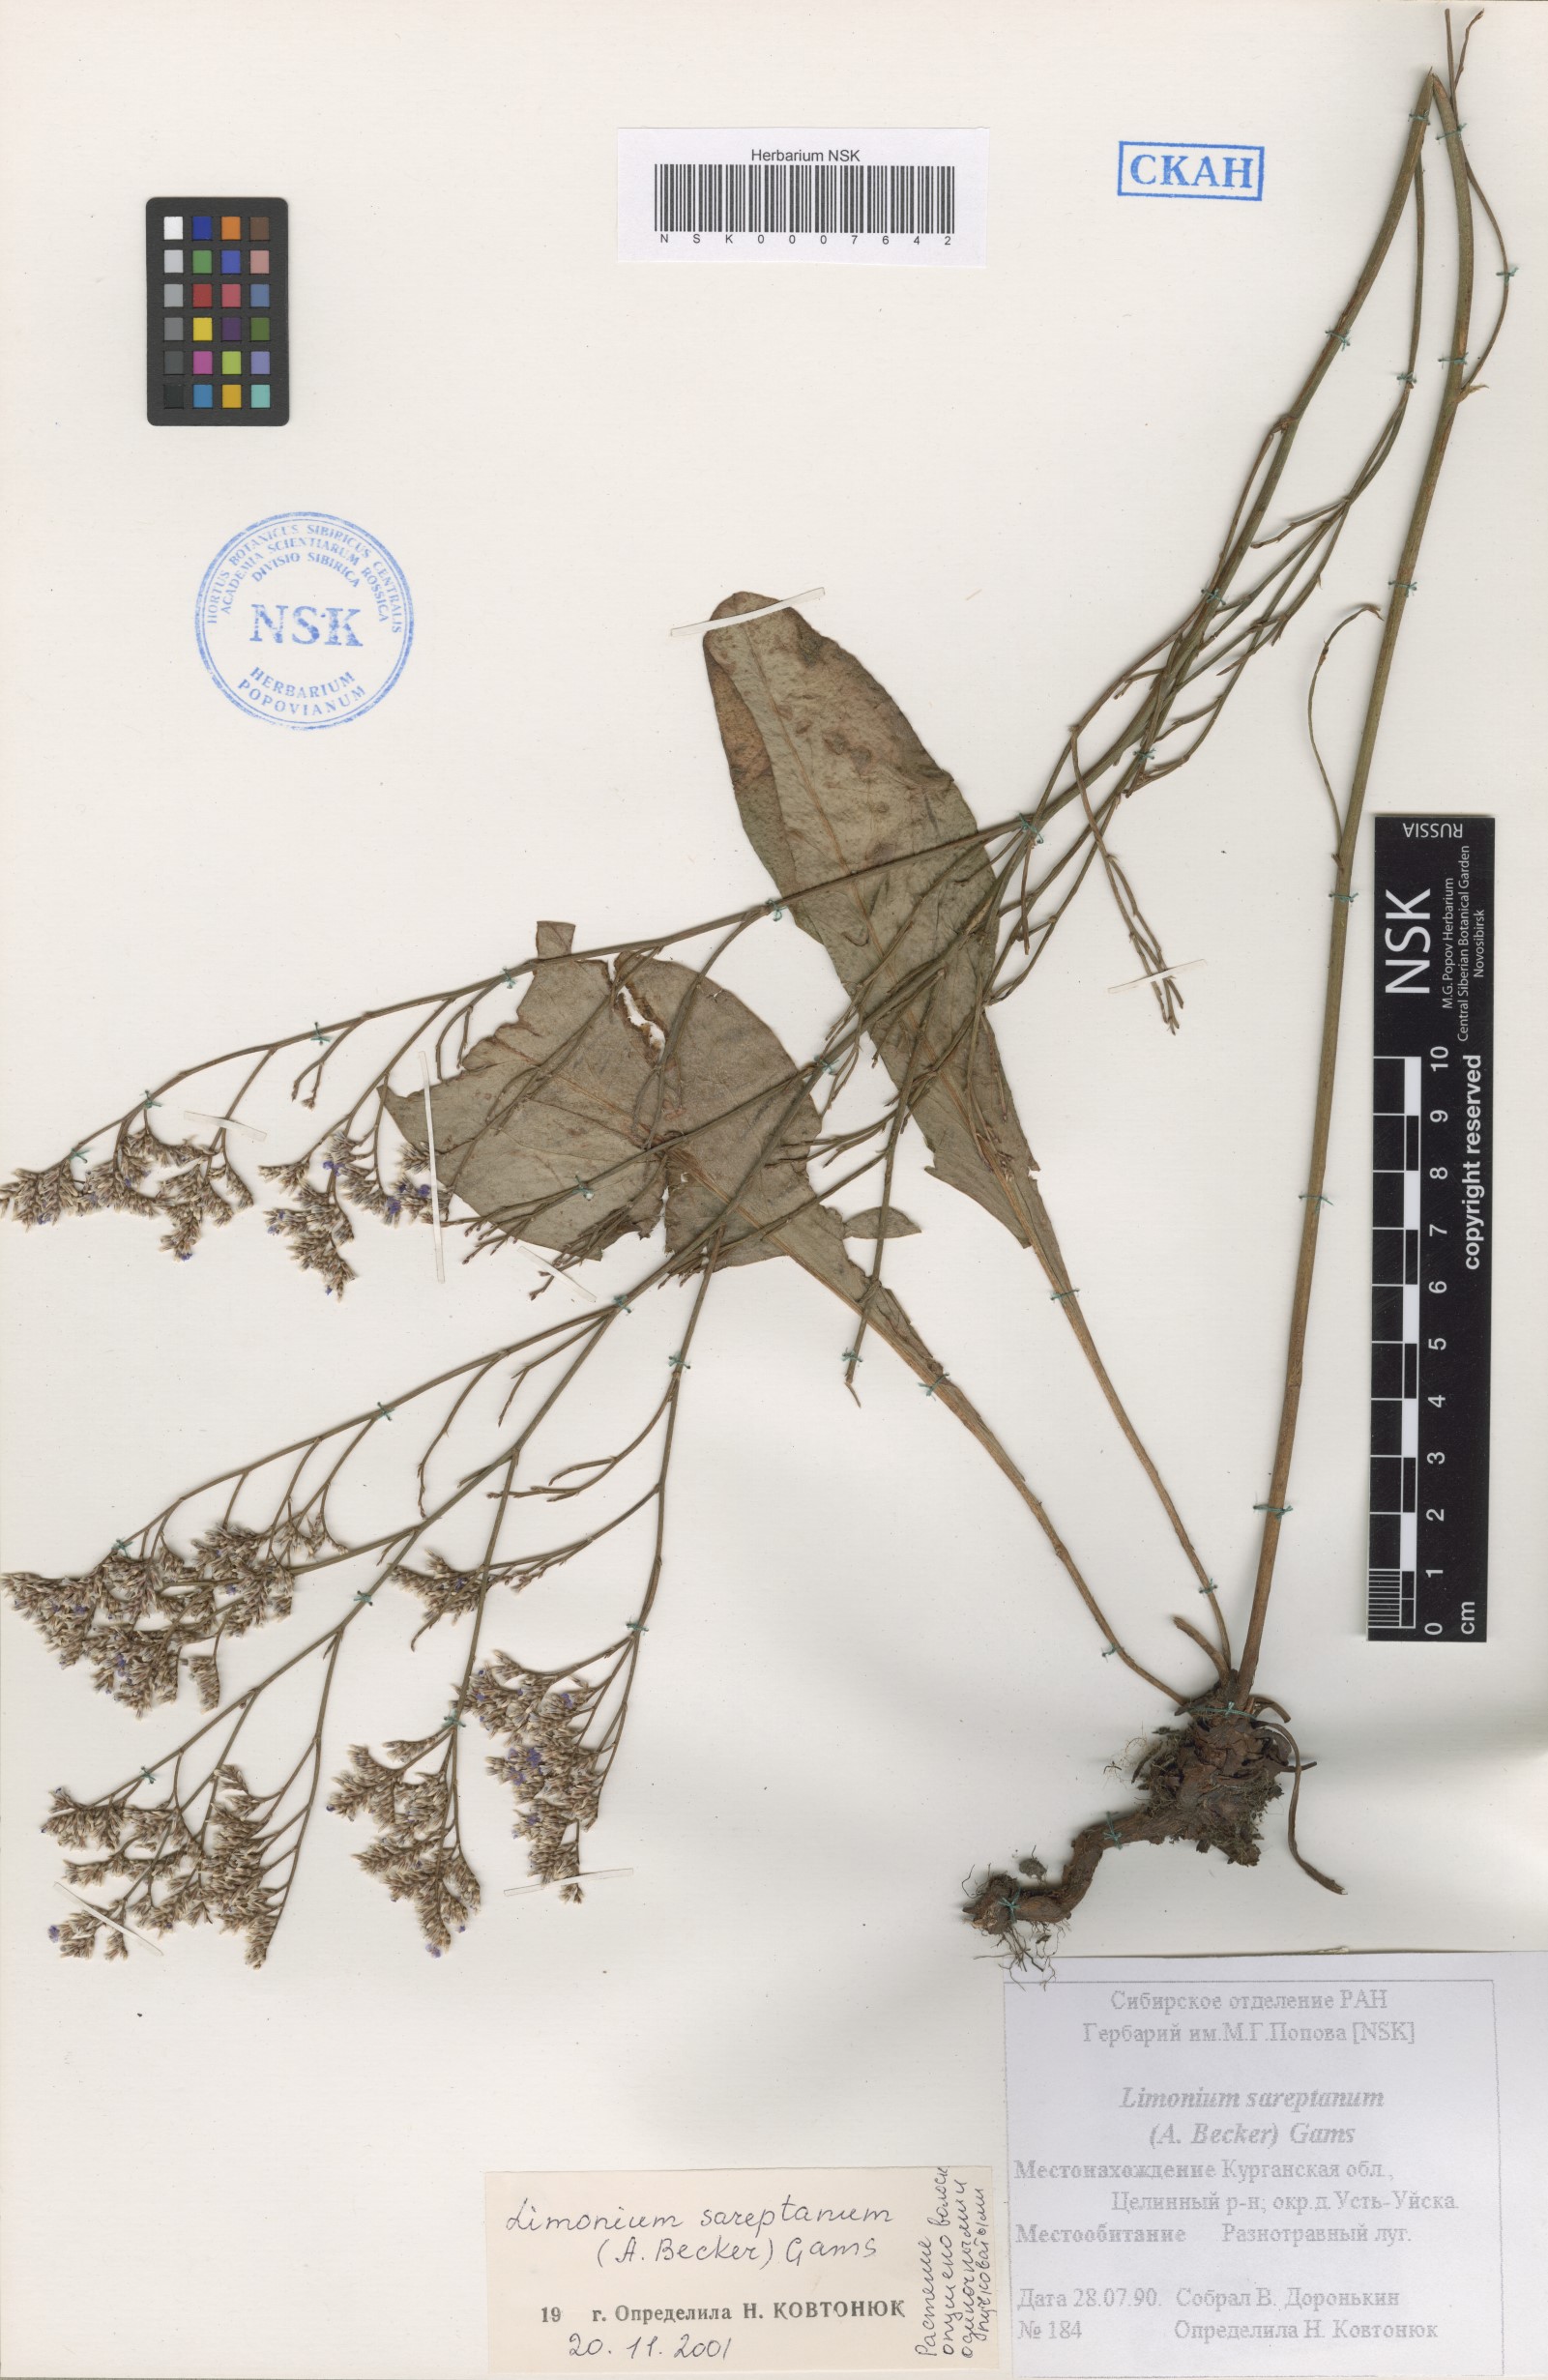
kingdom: Plantae
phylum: Tracheophyta
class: Magnoliopsida
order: Caryophyllales
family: Plumbaginaceae
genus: Limonium
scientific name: Limonium sareptanum
